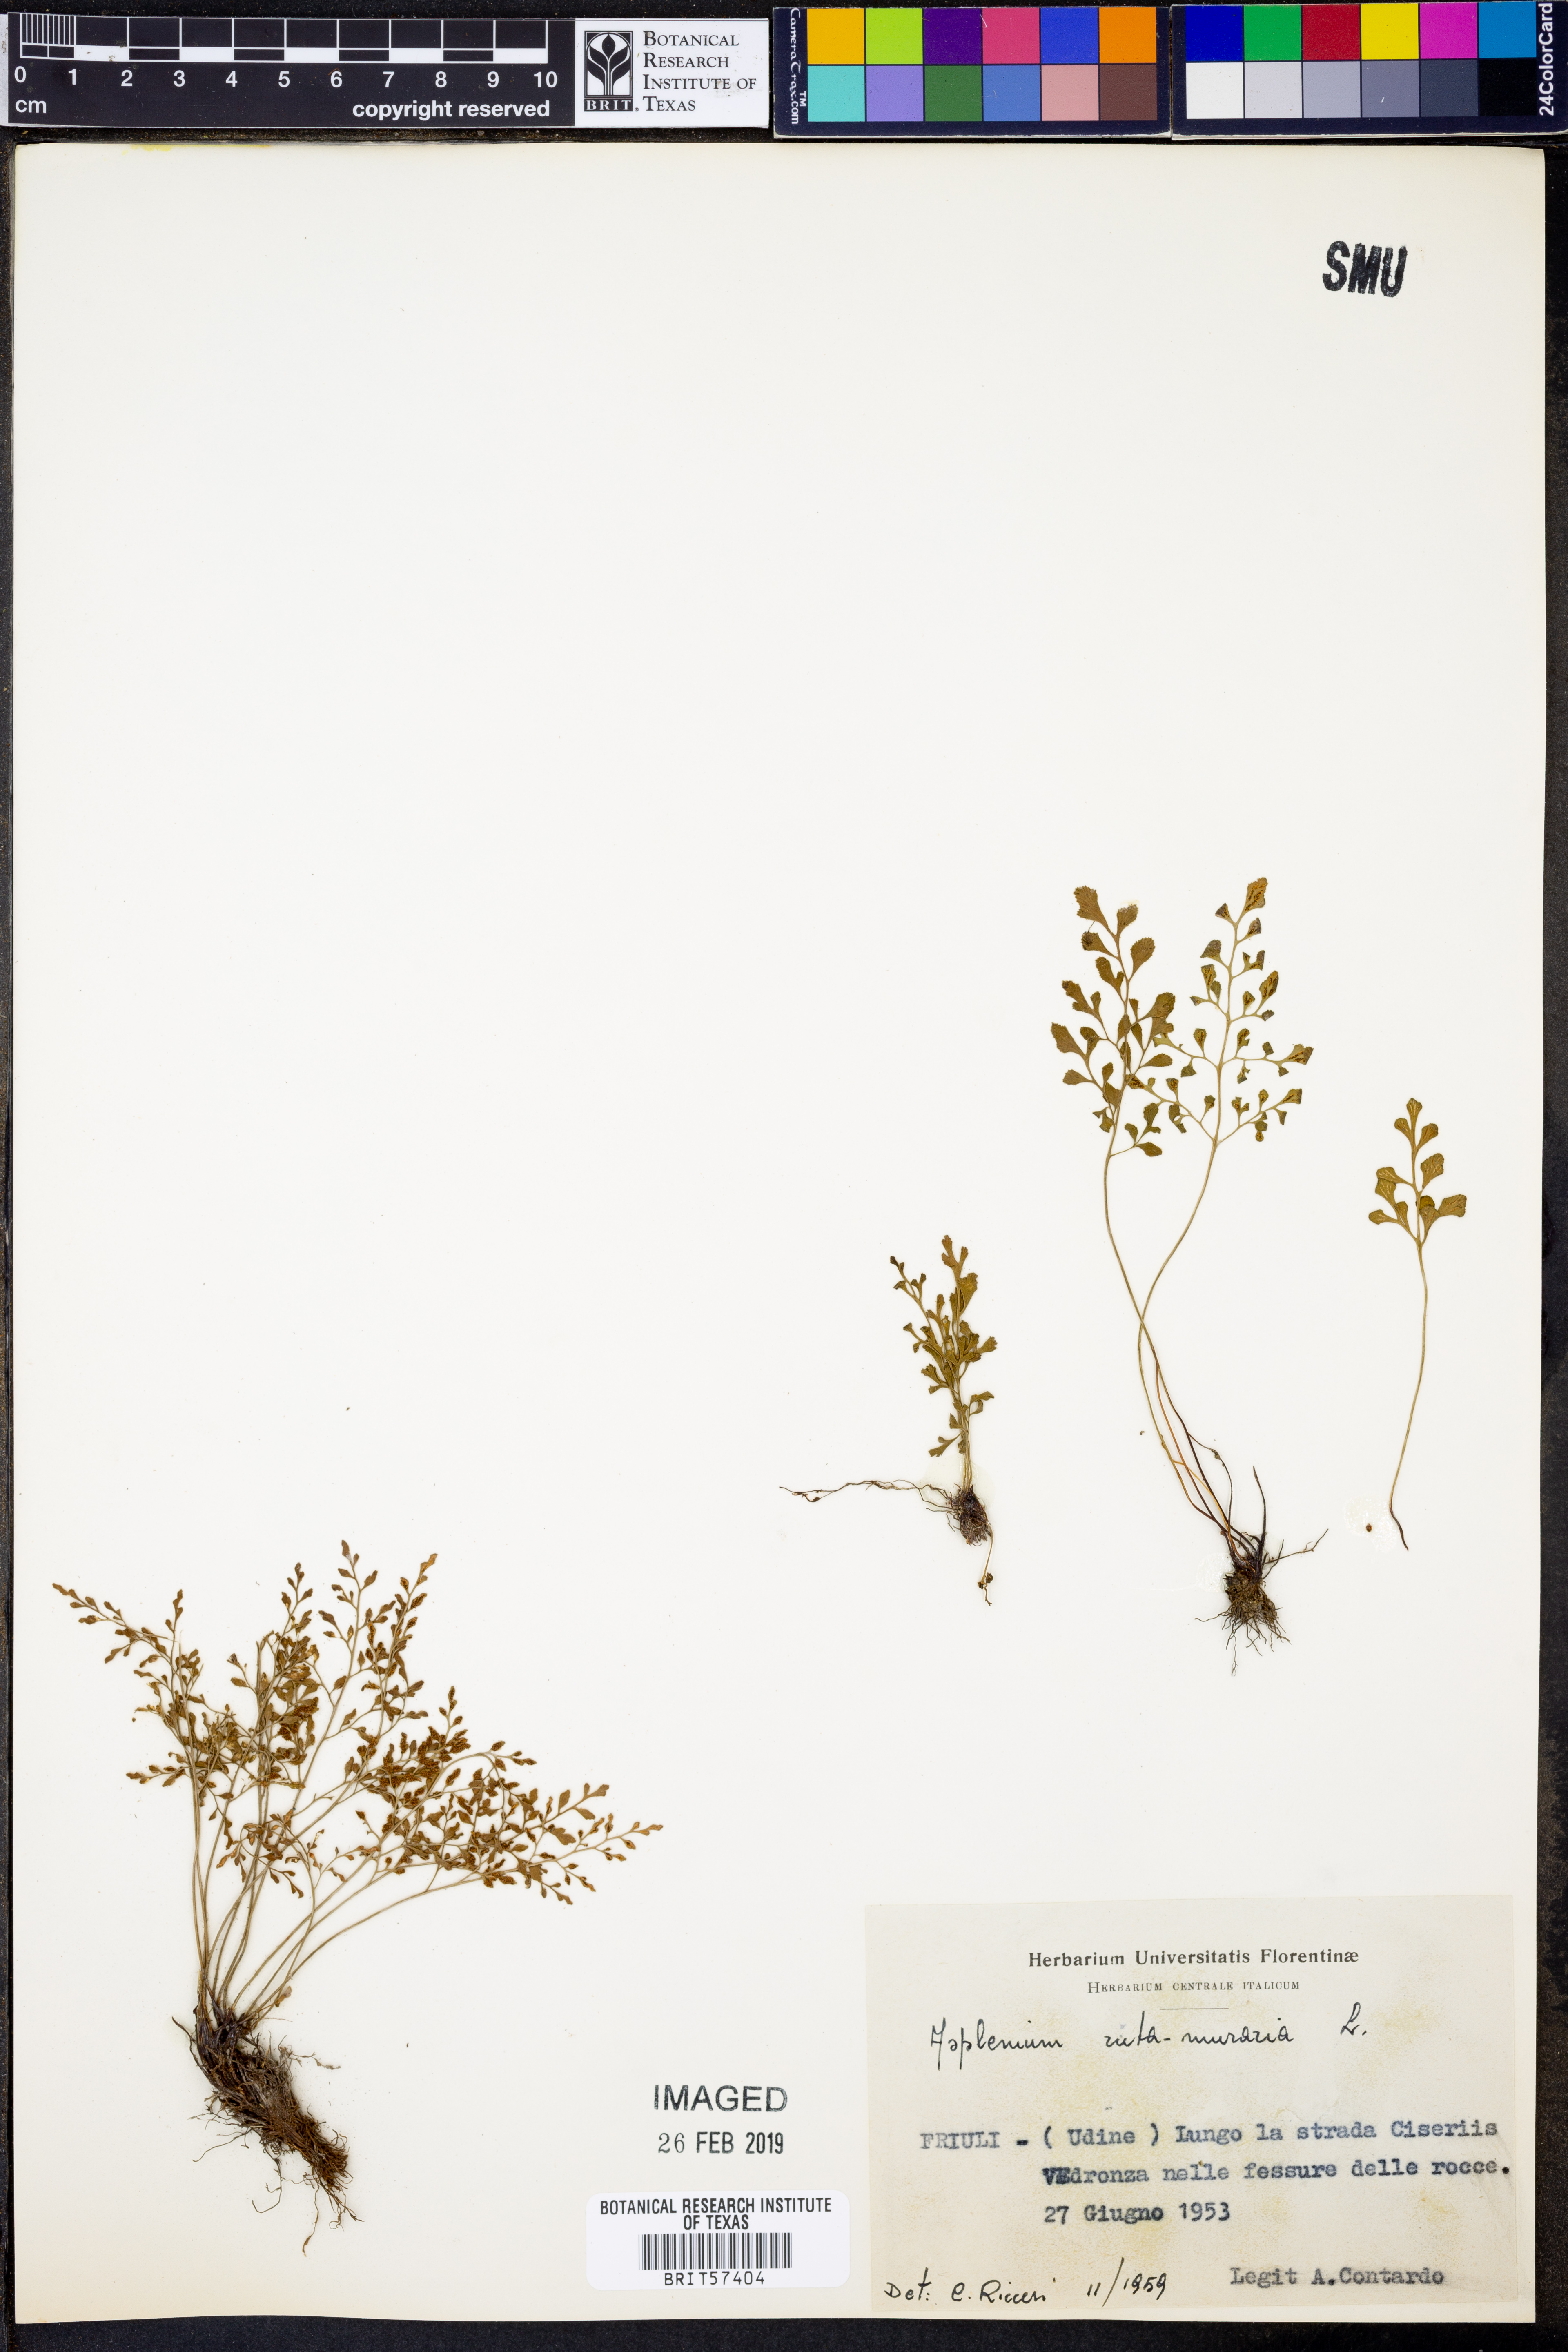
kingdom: Plantae
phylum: Tracheophyta
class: Polypodiopsida
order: Polypodiales
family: Aspleniaceae
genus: Asplenium
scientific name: Asplenium ruta-muraria
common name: Wall-rue
